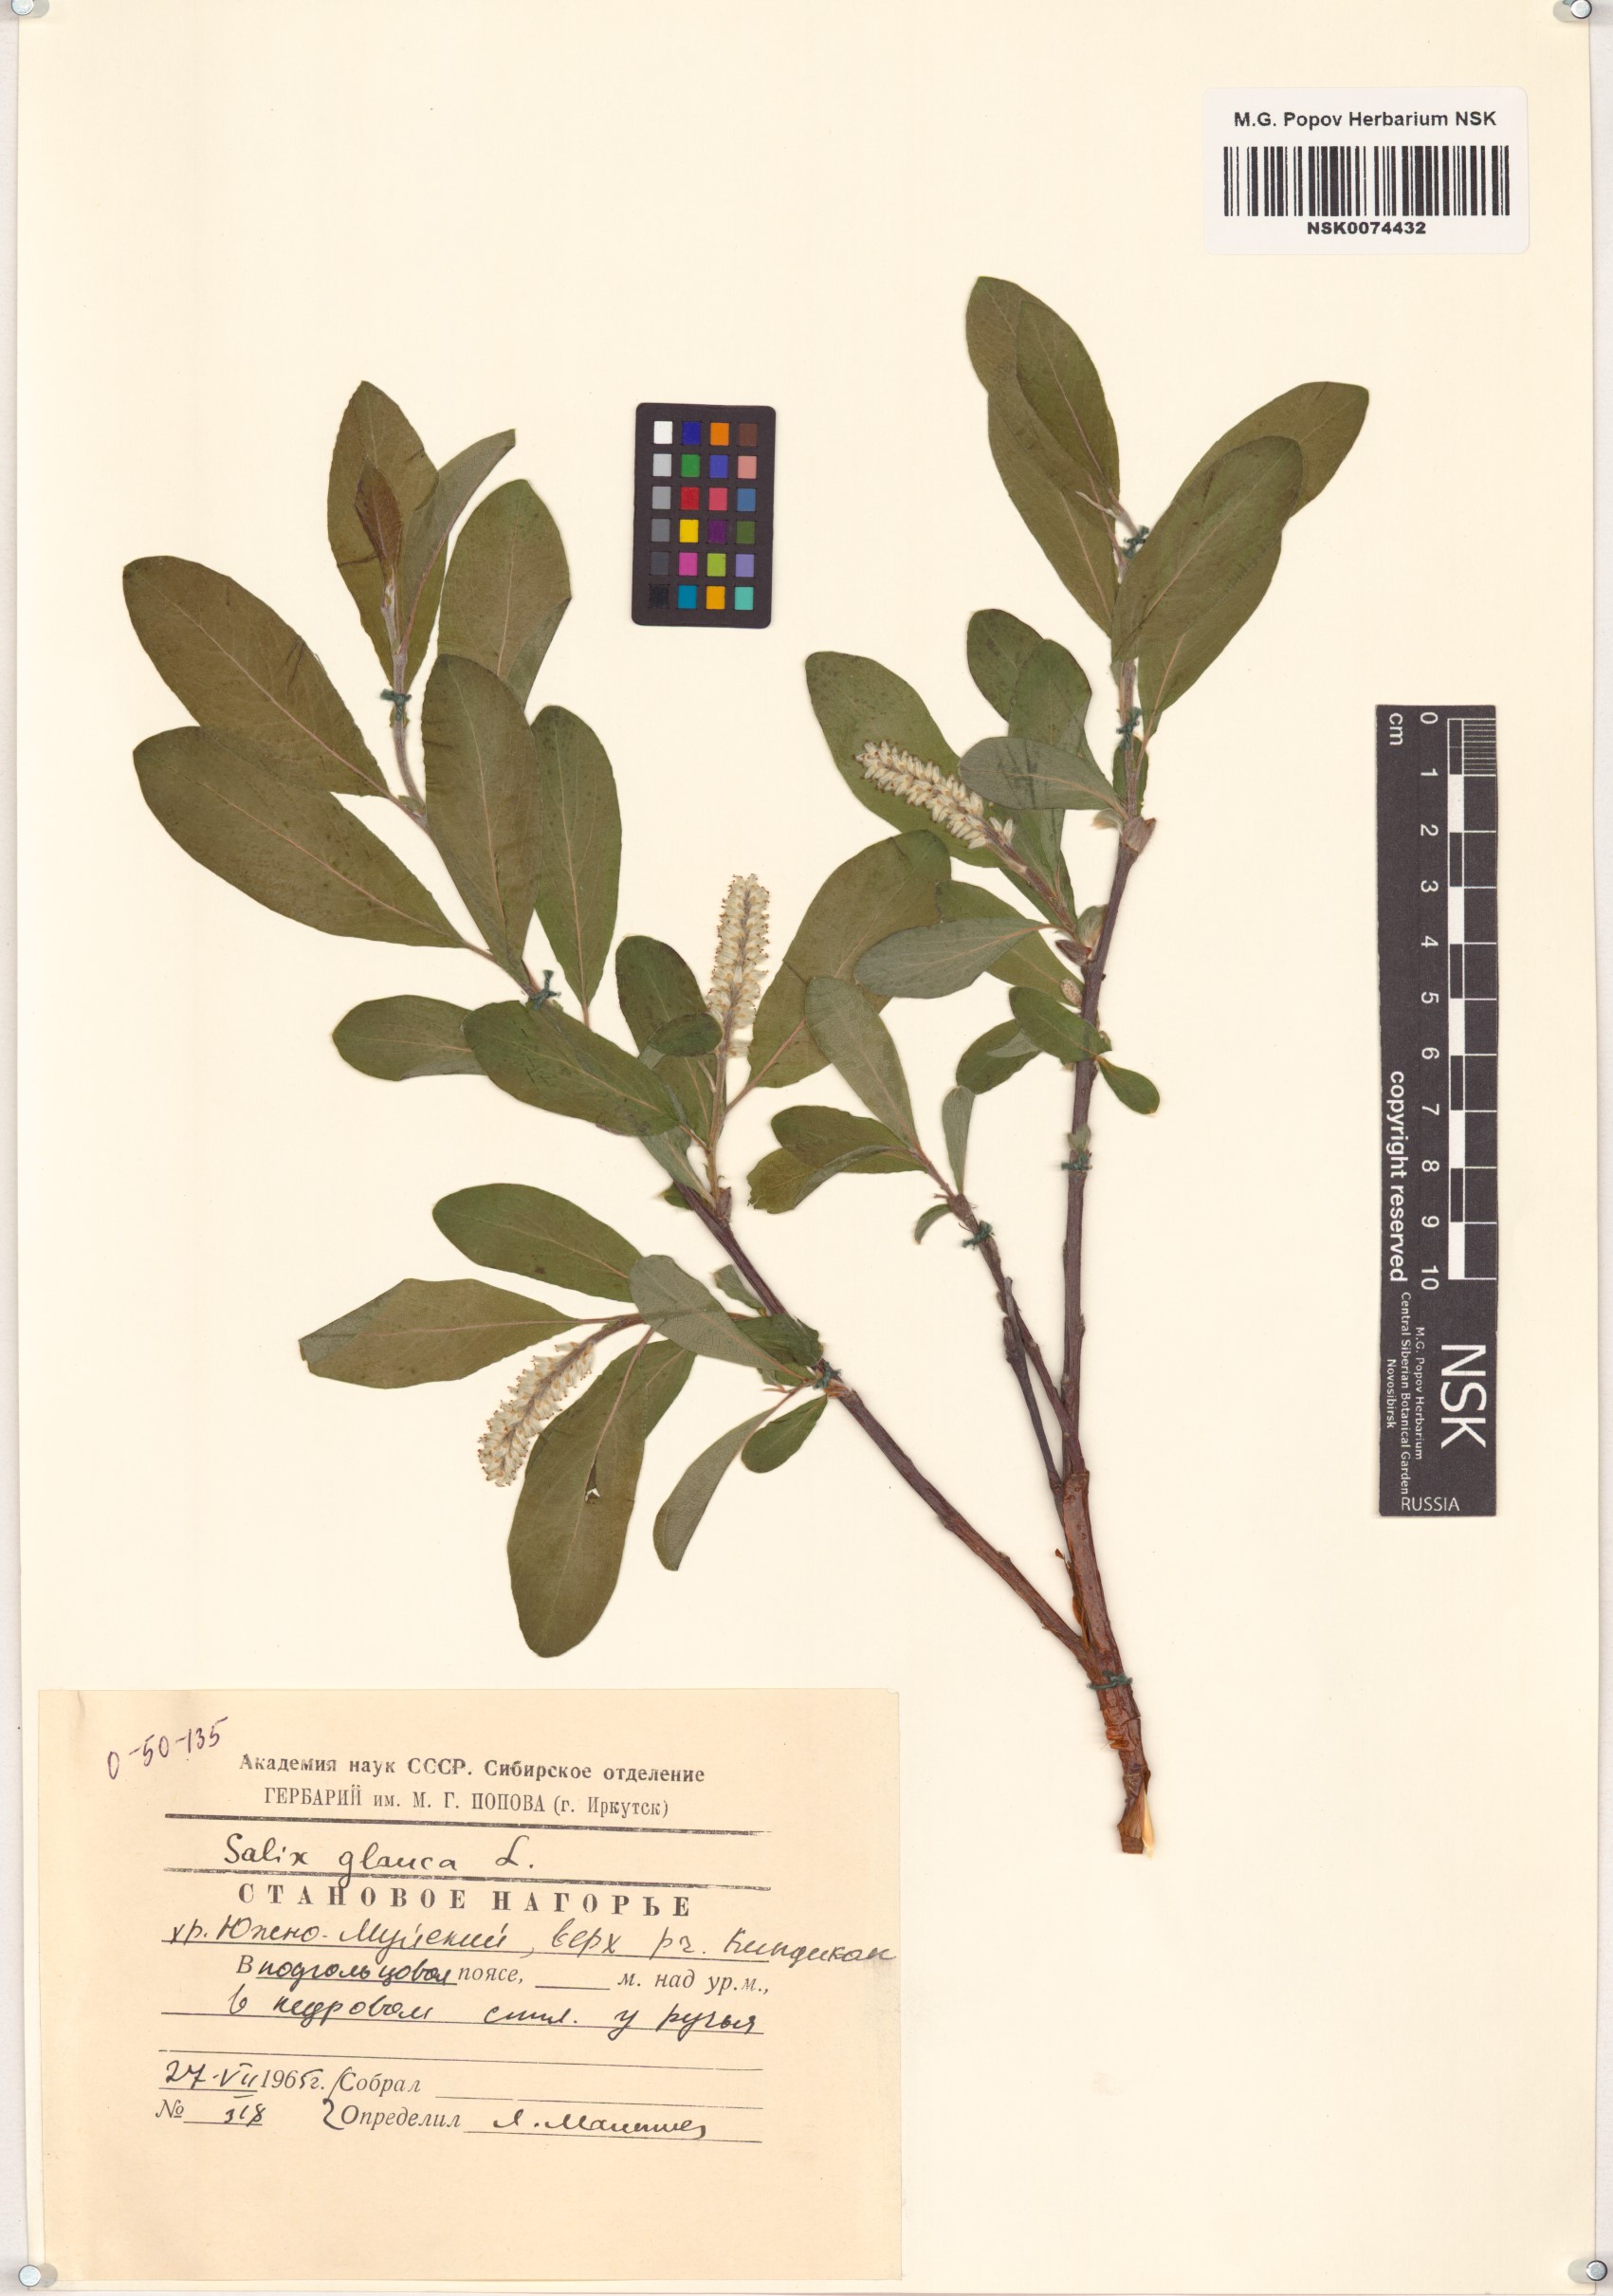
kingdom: Plantae
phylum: Tracheophyta
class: Magnoliopsida
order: Malpighiales
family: Salicaceae
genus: Salix
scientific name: Salix glauca
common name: Glaucous willow
